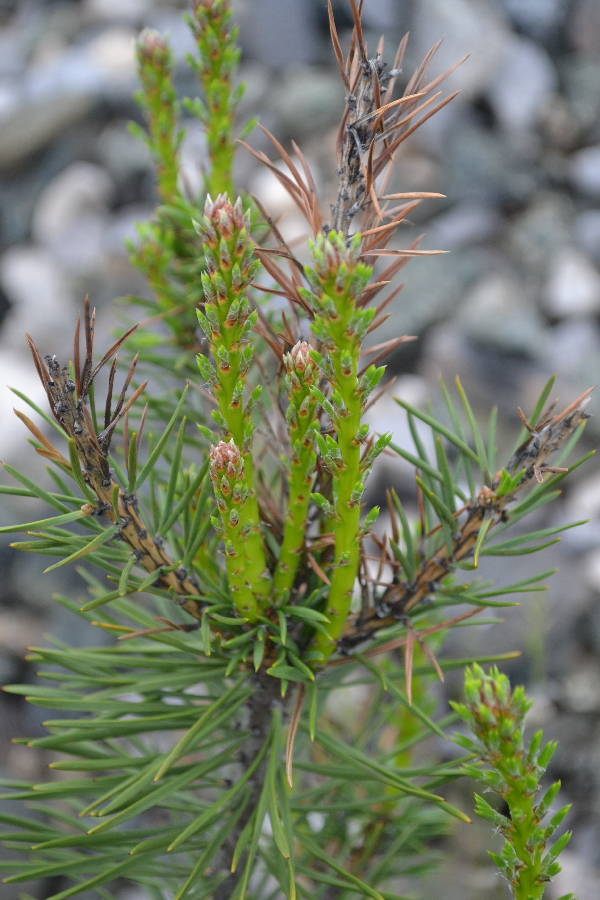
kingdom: Plantae
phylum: Tracheophyta
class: Pinopsida
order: Pinales
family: Pinaceae
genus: Pinus
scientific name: Pinus sylvestris
